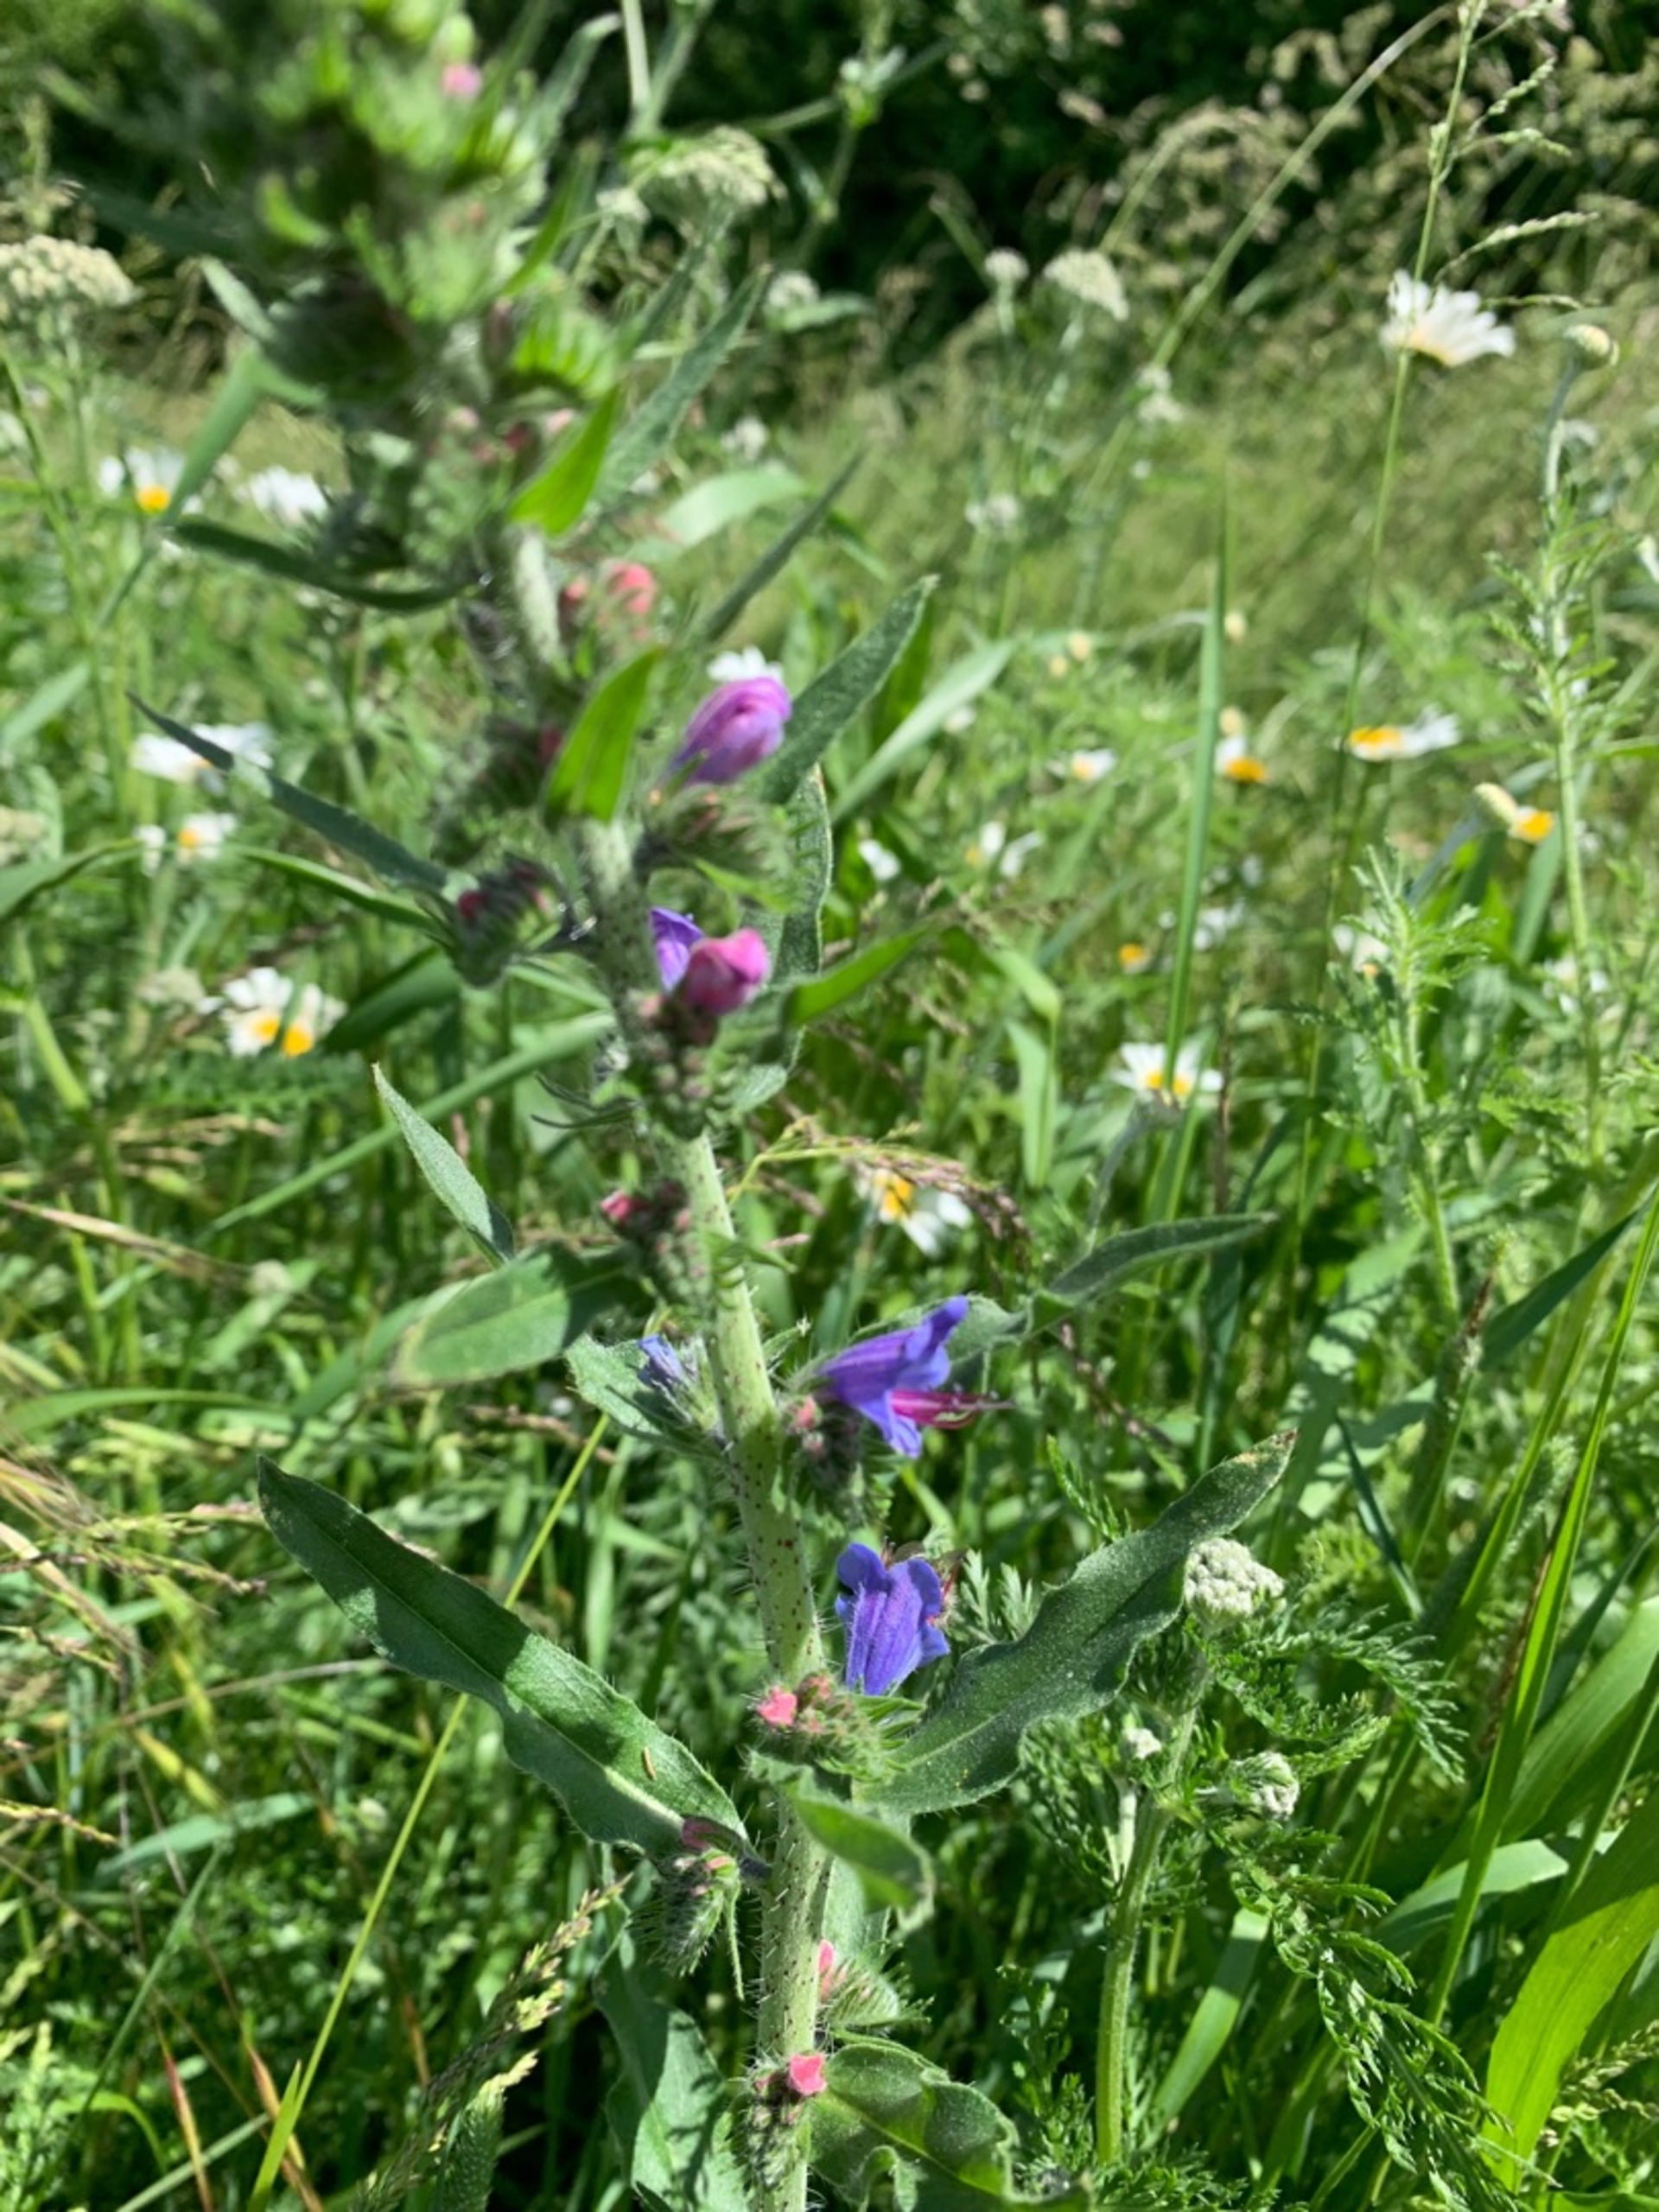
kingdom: Plantae
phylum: Tracheophyta
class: Magnoliopsida
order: Boraginales
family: Boraginaceae
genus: Echium
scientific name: Echium vulgare
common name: Slangehoved
